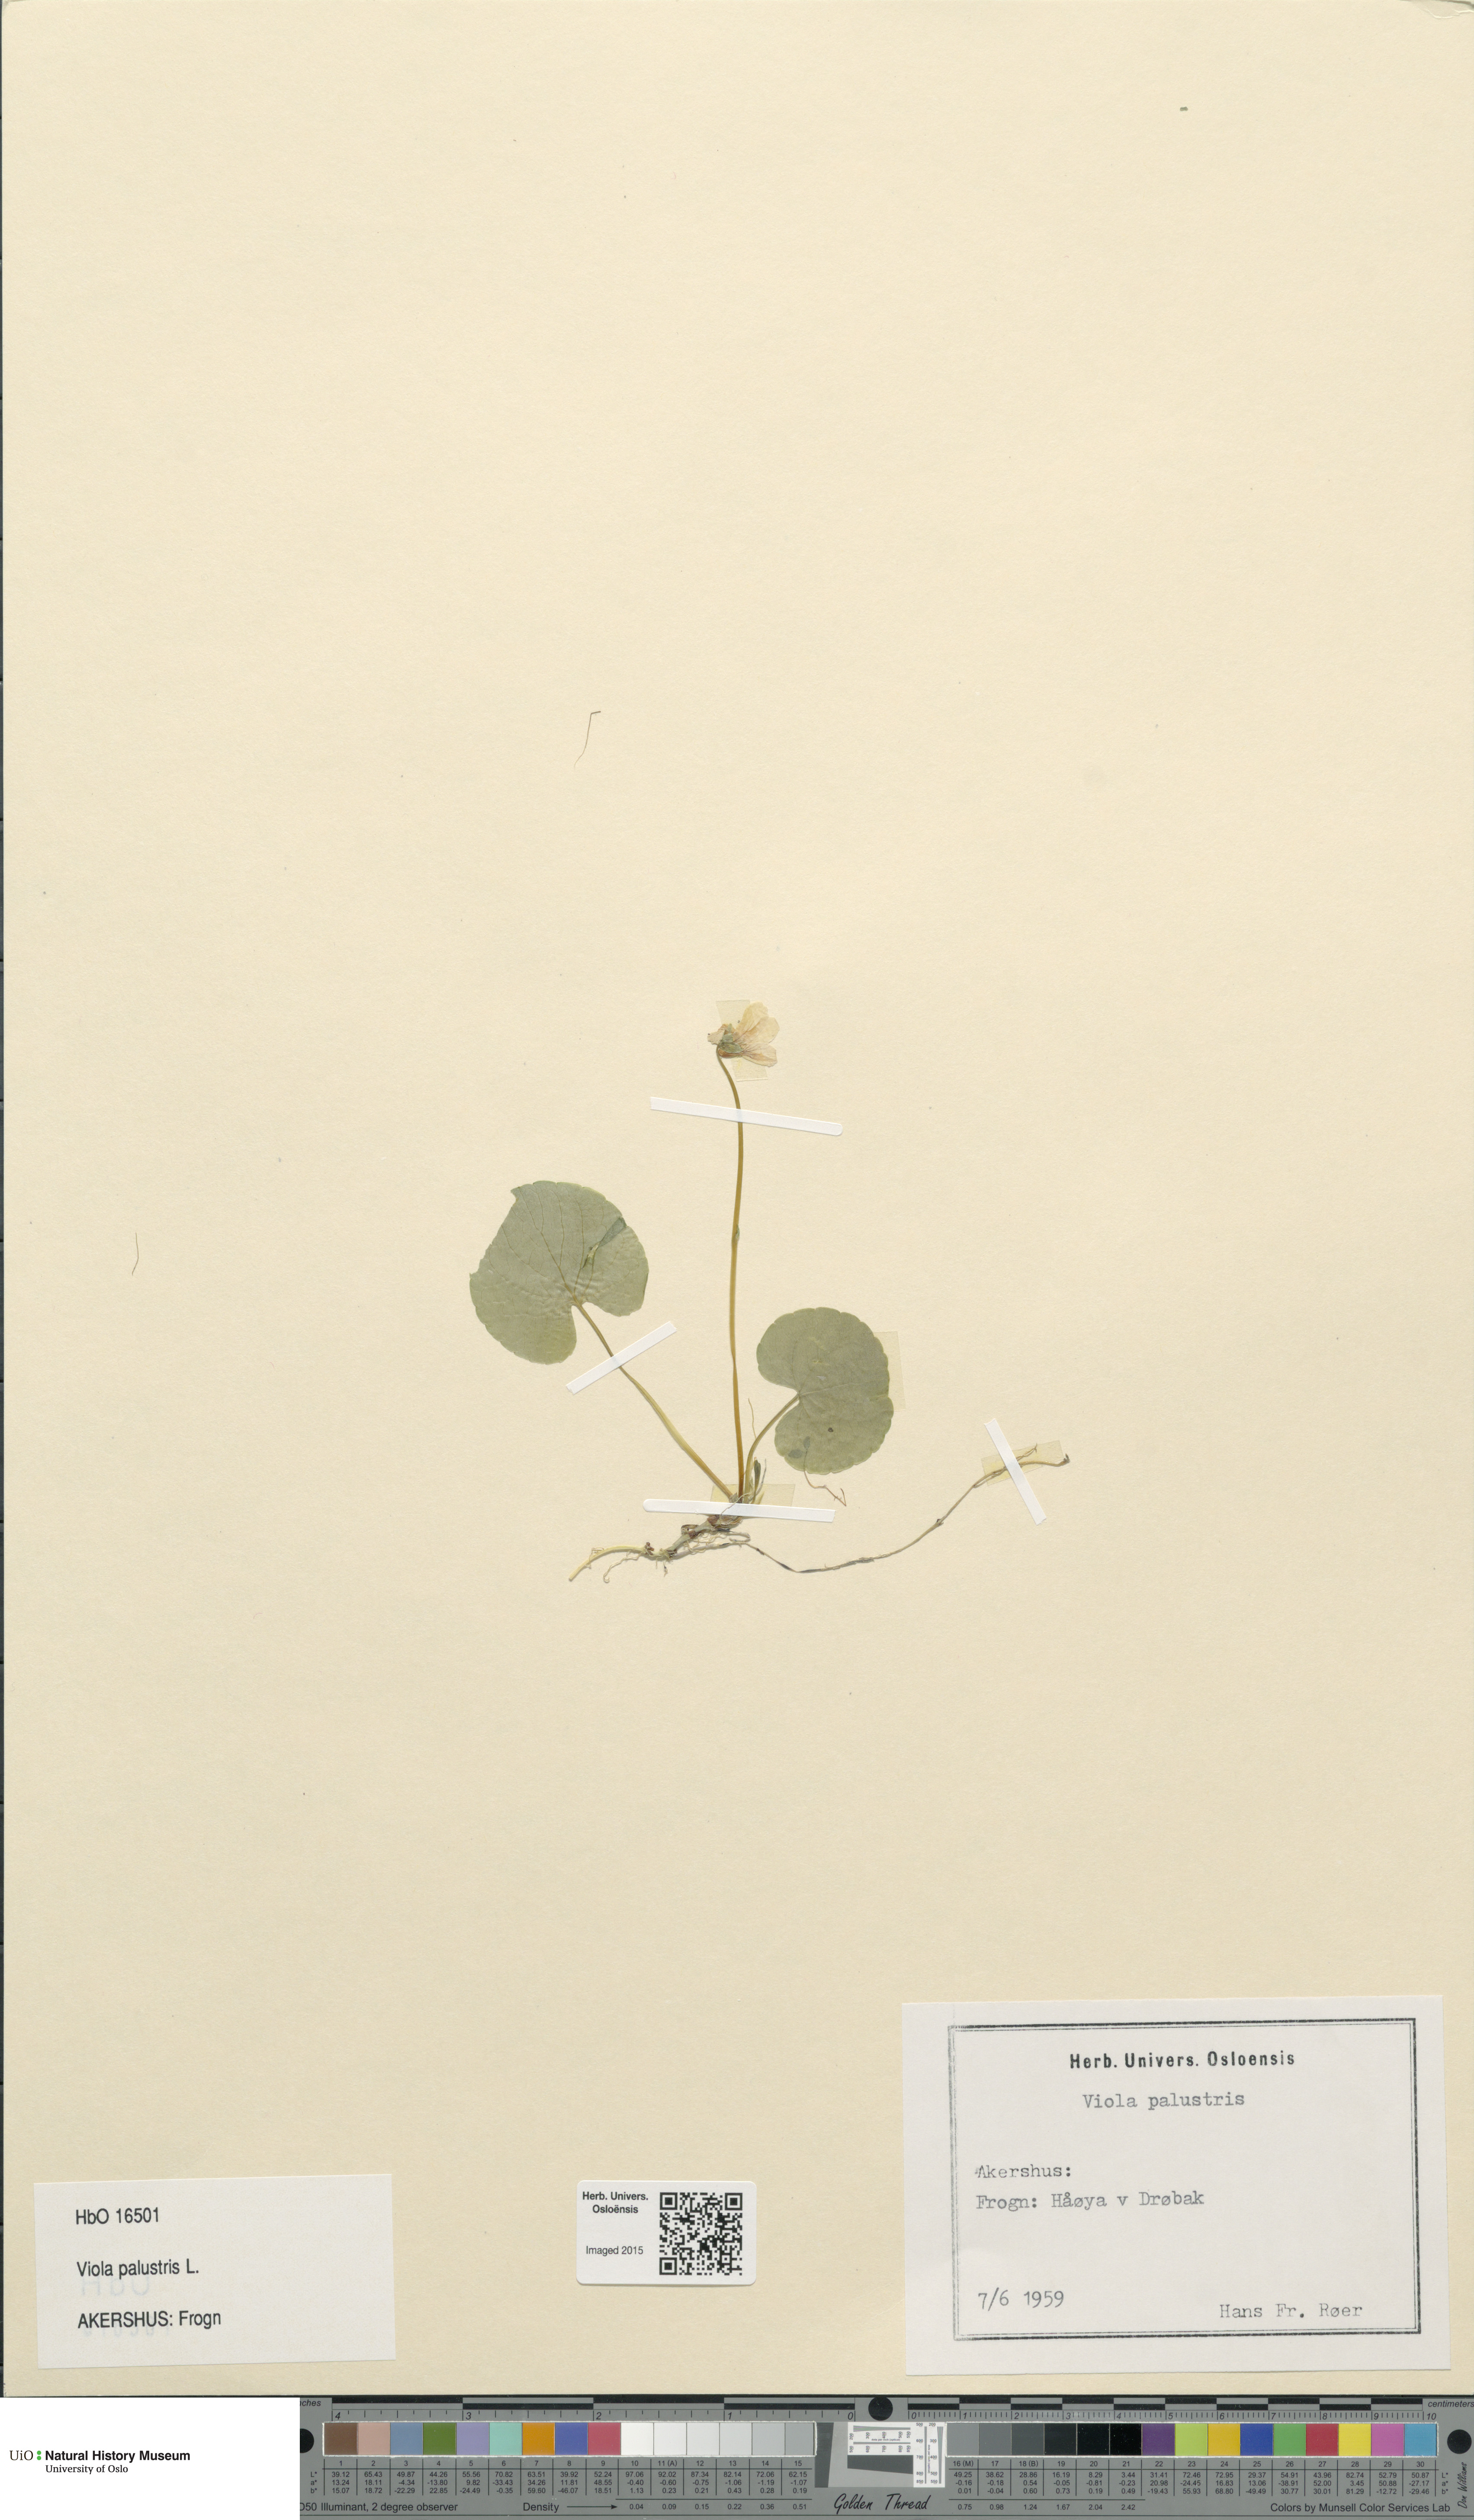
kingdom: Plantae
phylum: Tracheophyta
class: Magnoliopsida
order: Malpighiales
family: Violaceae
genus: Viola
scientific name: Viola palustris
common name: Marsh violet
